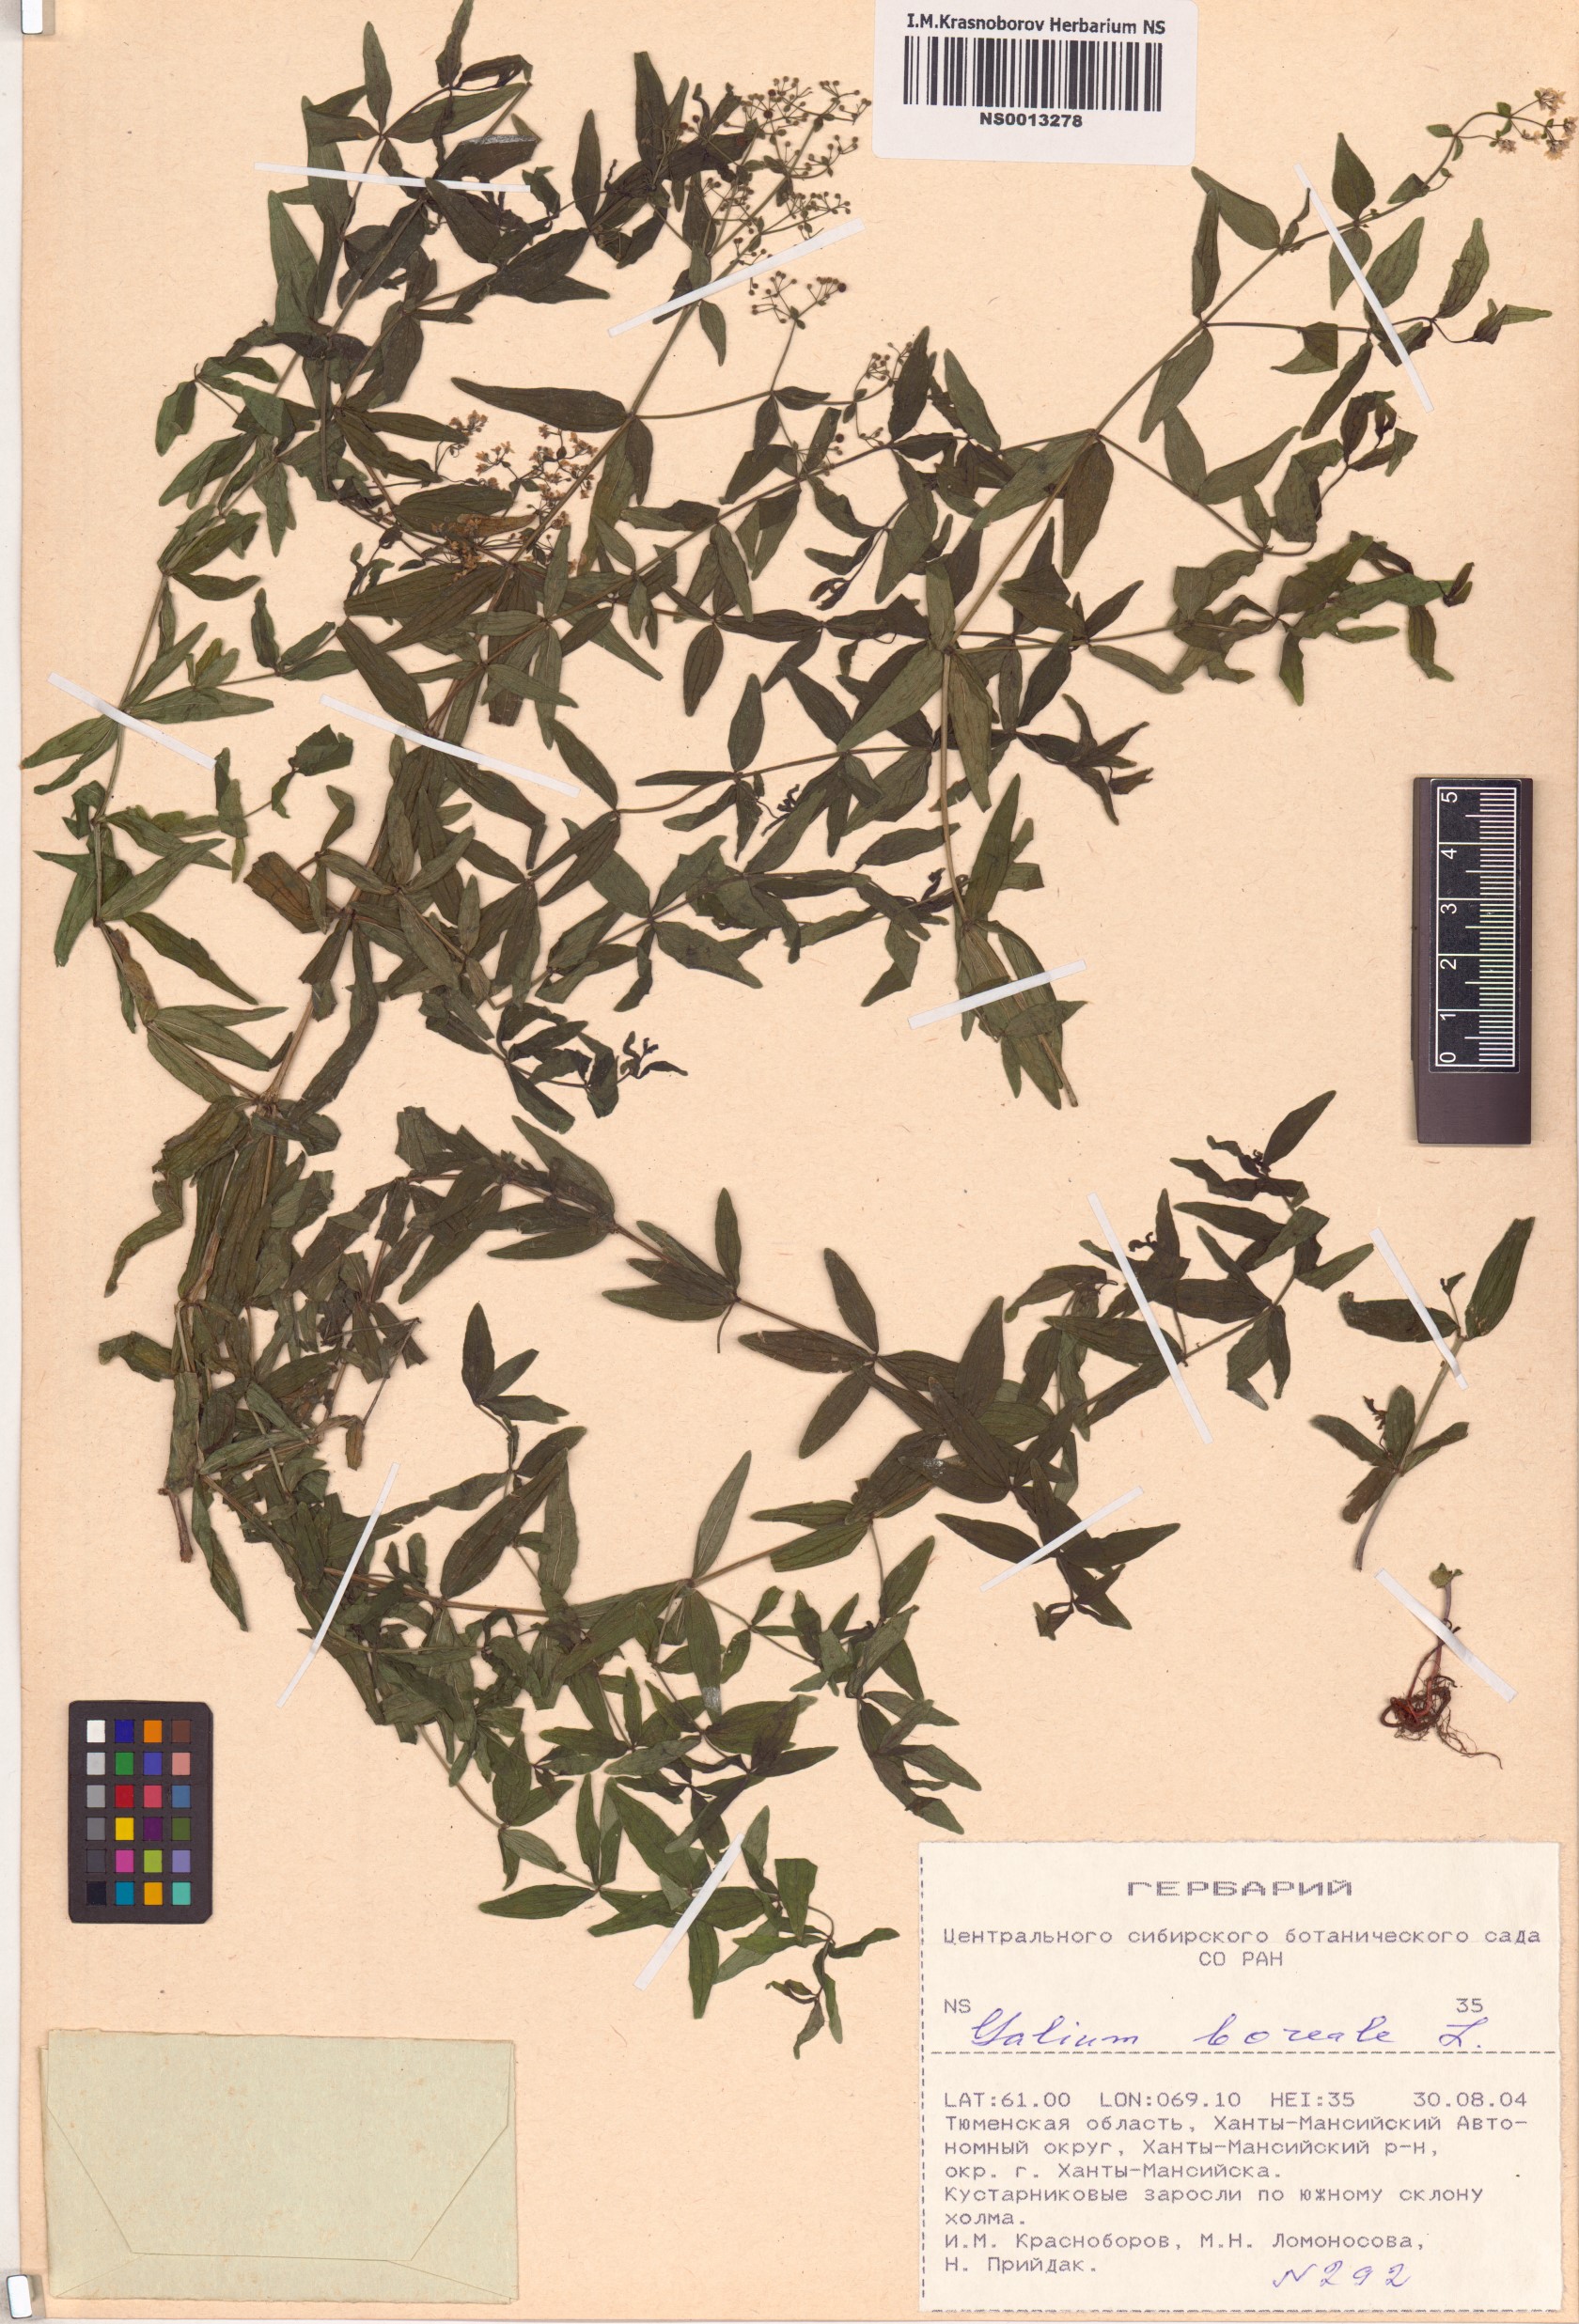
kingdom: Plantae
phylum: Tracheophyta
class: Magnoliopsida
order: Gentianales
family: Rubiaceae
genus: Galium
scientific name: Galium boreale
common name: Northern bedstraw
